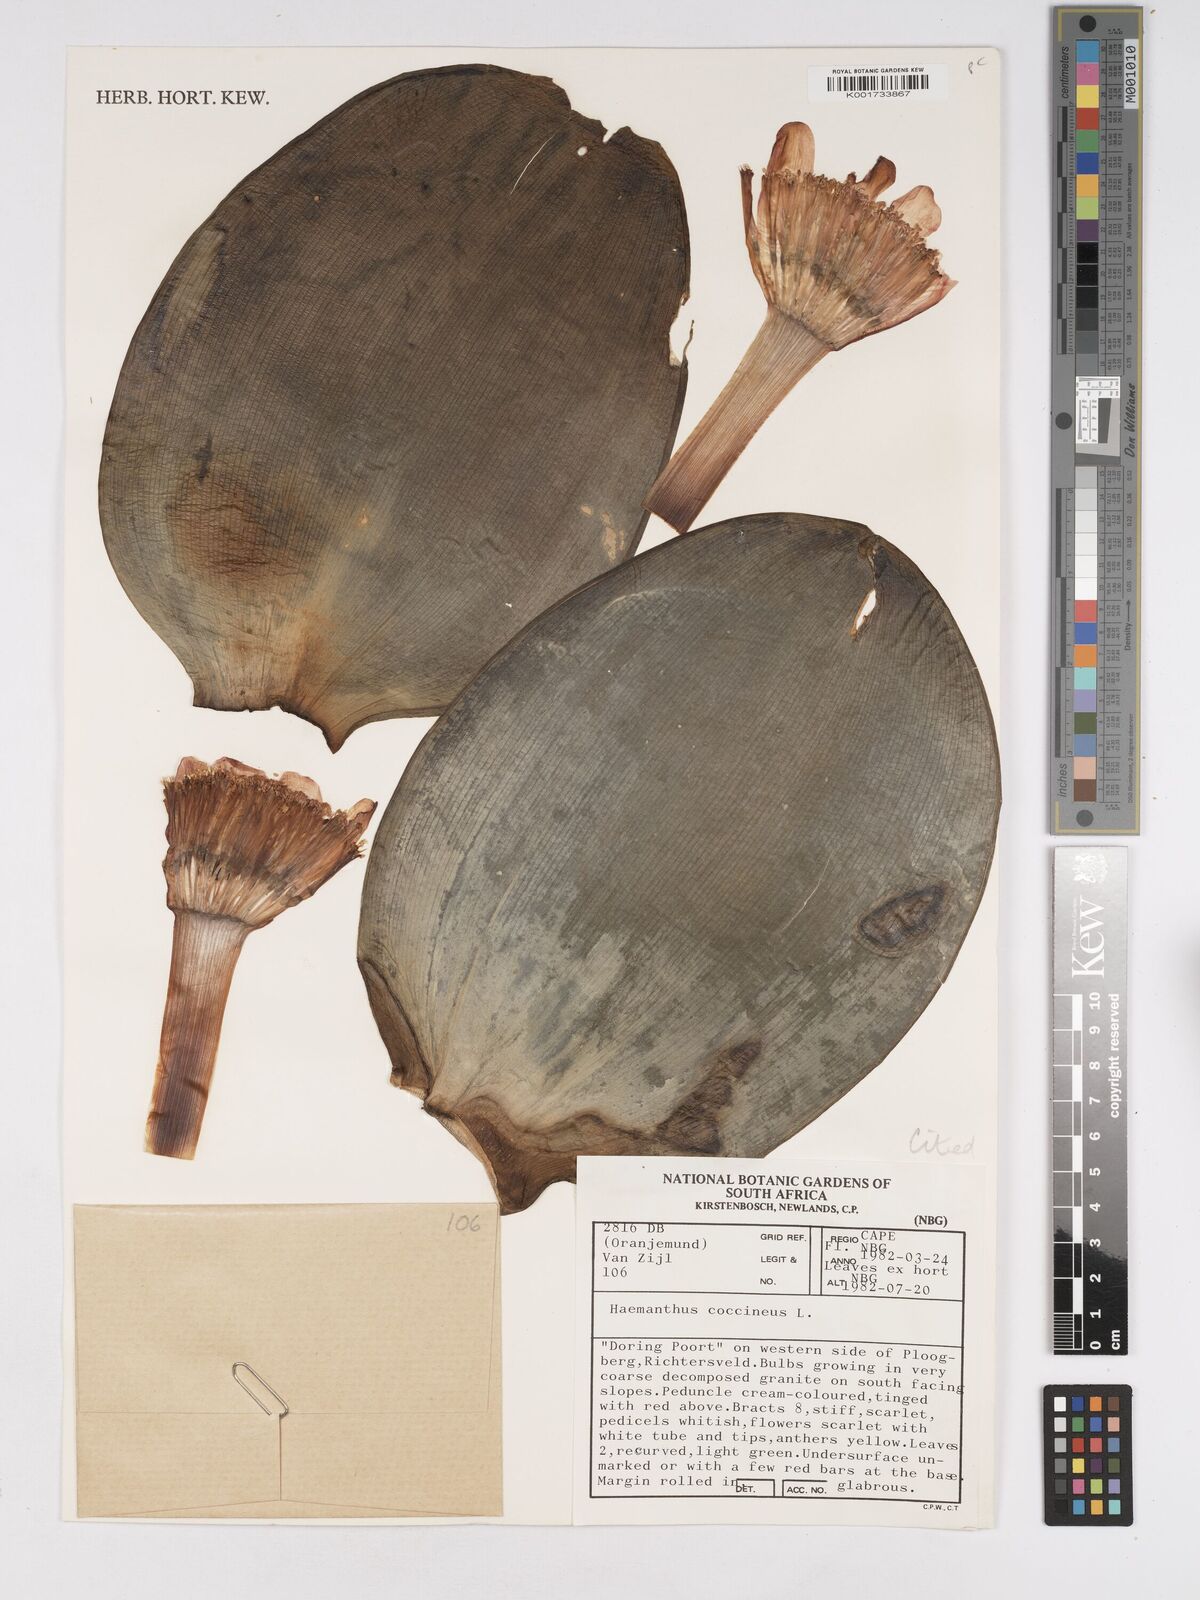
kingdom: Plantae
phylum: Tracheophyta
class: Liliopsida
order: Asparagales
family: Amaryllidaceae
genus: Haemanthus
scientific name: Haemanthus coccineus
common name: Cape-tulip
